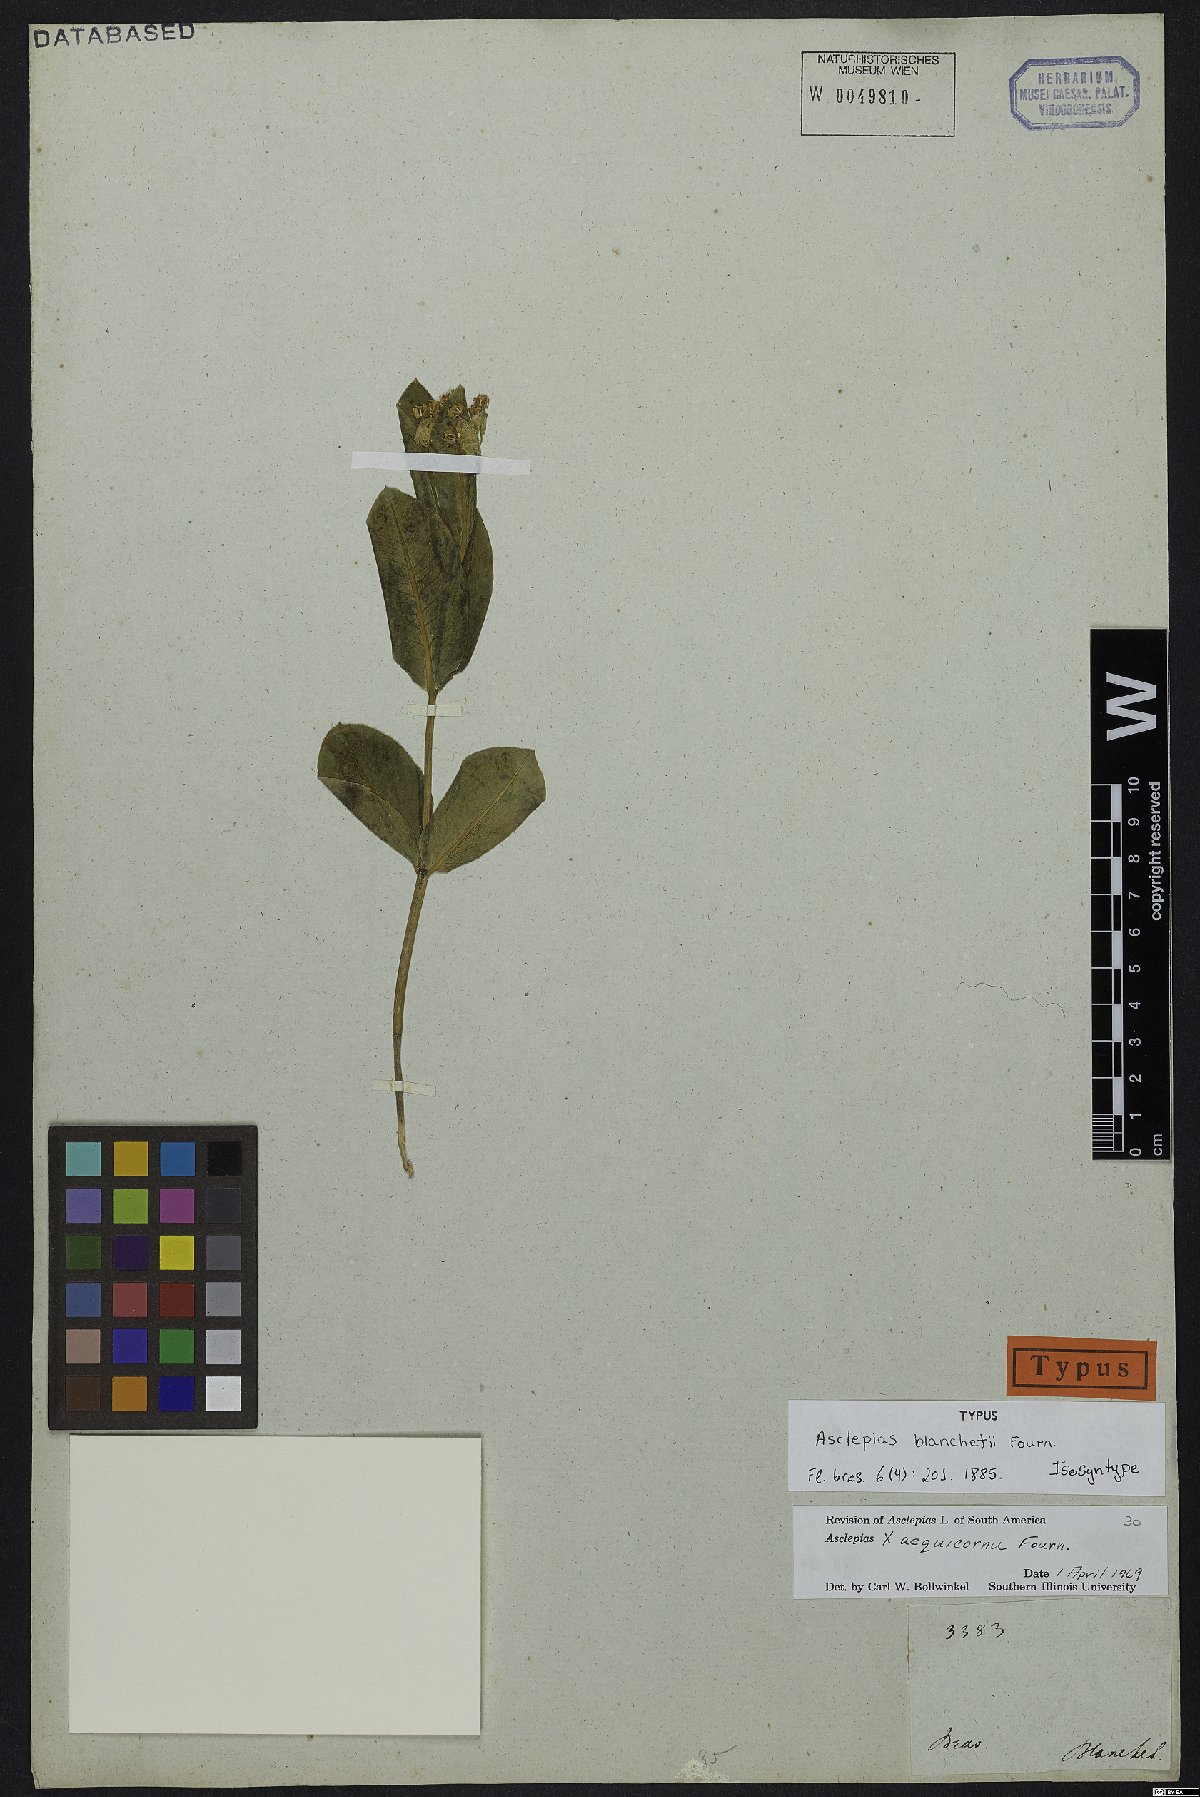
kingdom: Plantae
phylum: Tracheophyta
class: Magnoliopsida
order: Gentianales
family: Apocynaceae
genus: Asclepias
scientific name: Asclepias aequicornu
